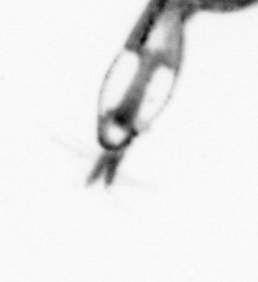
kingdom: Animalia
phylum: Arthropoda
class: Copepoda
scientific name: Copepoda
